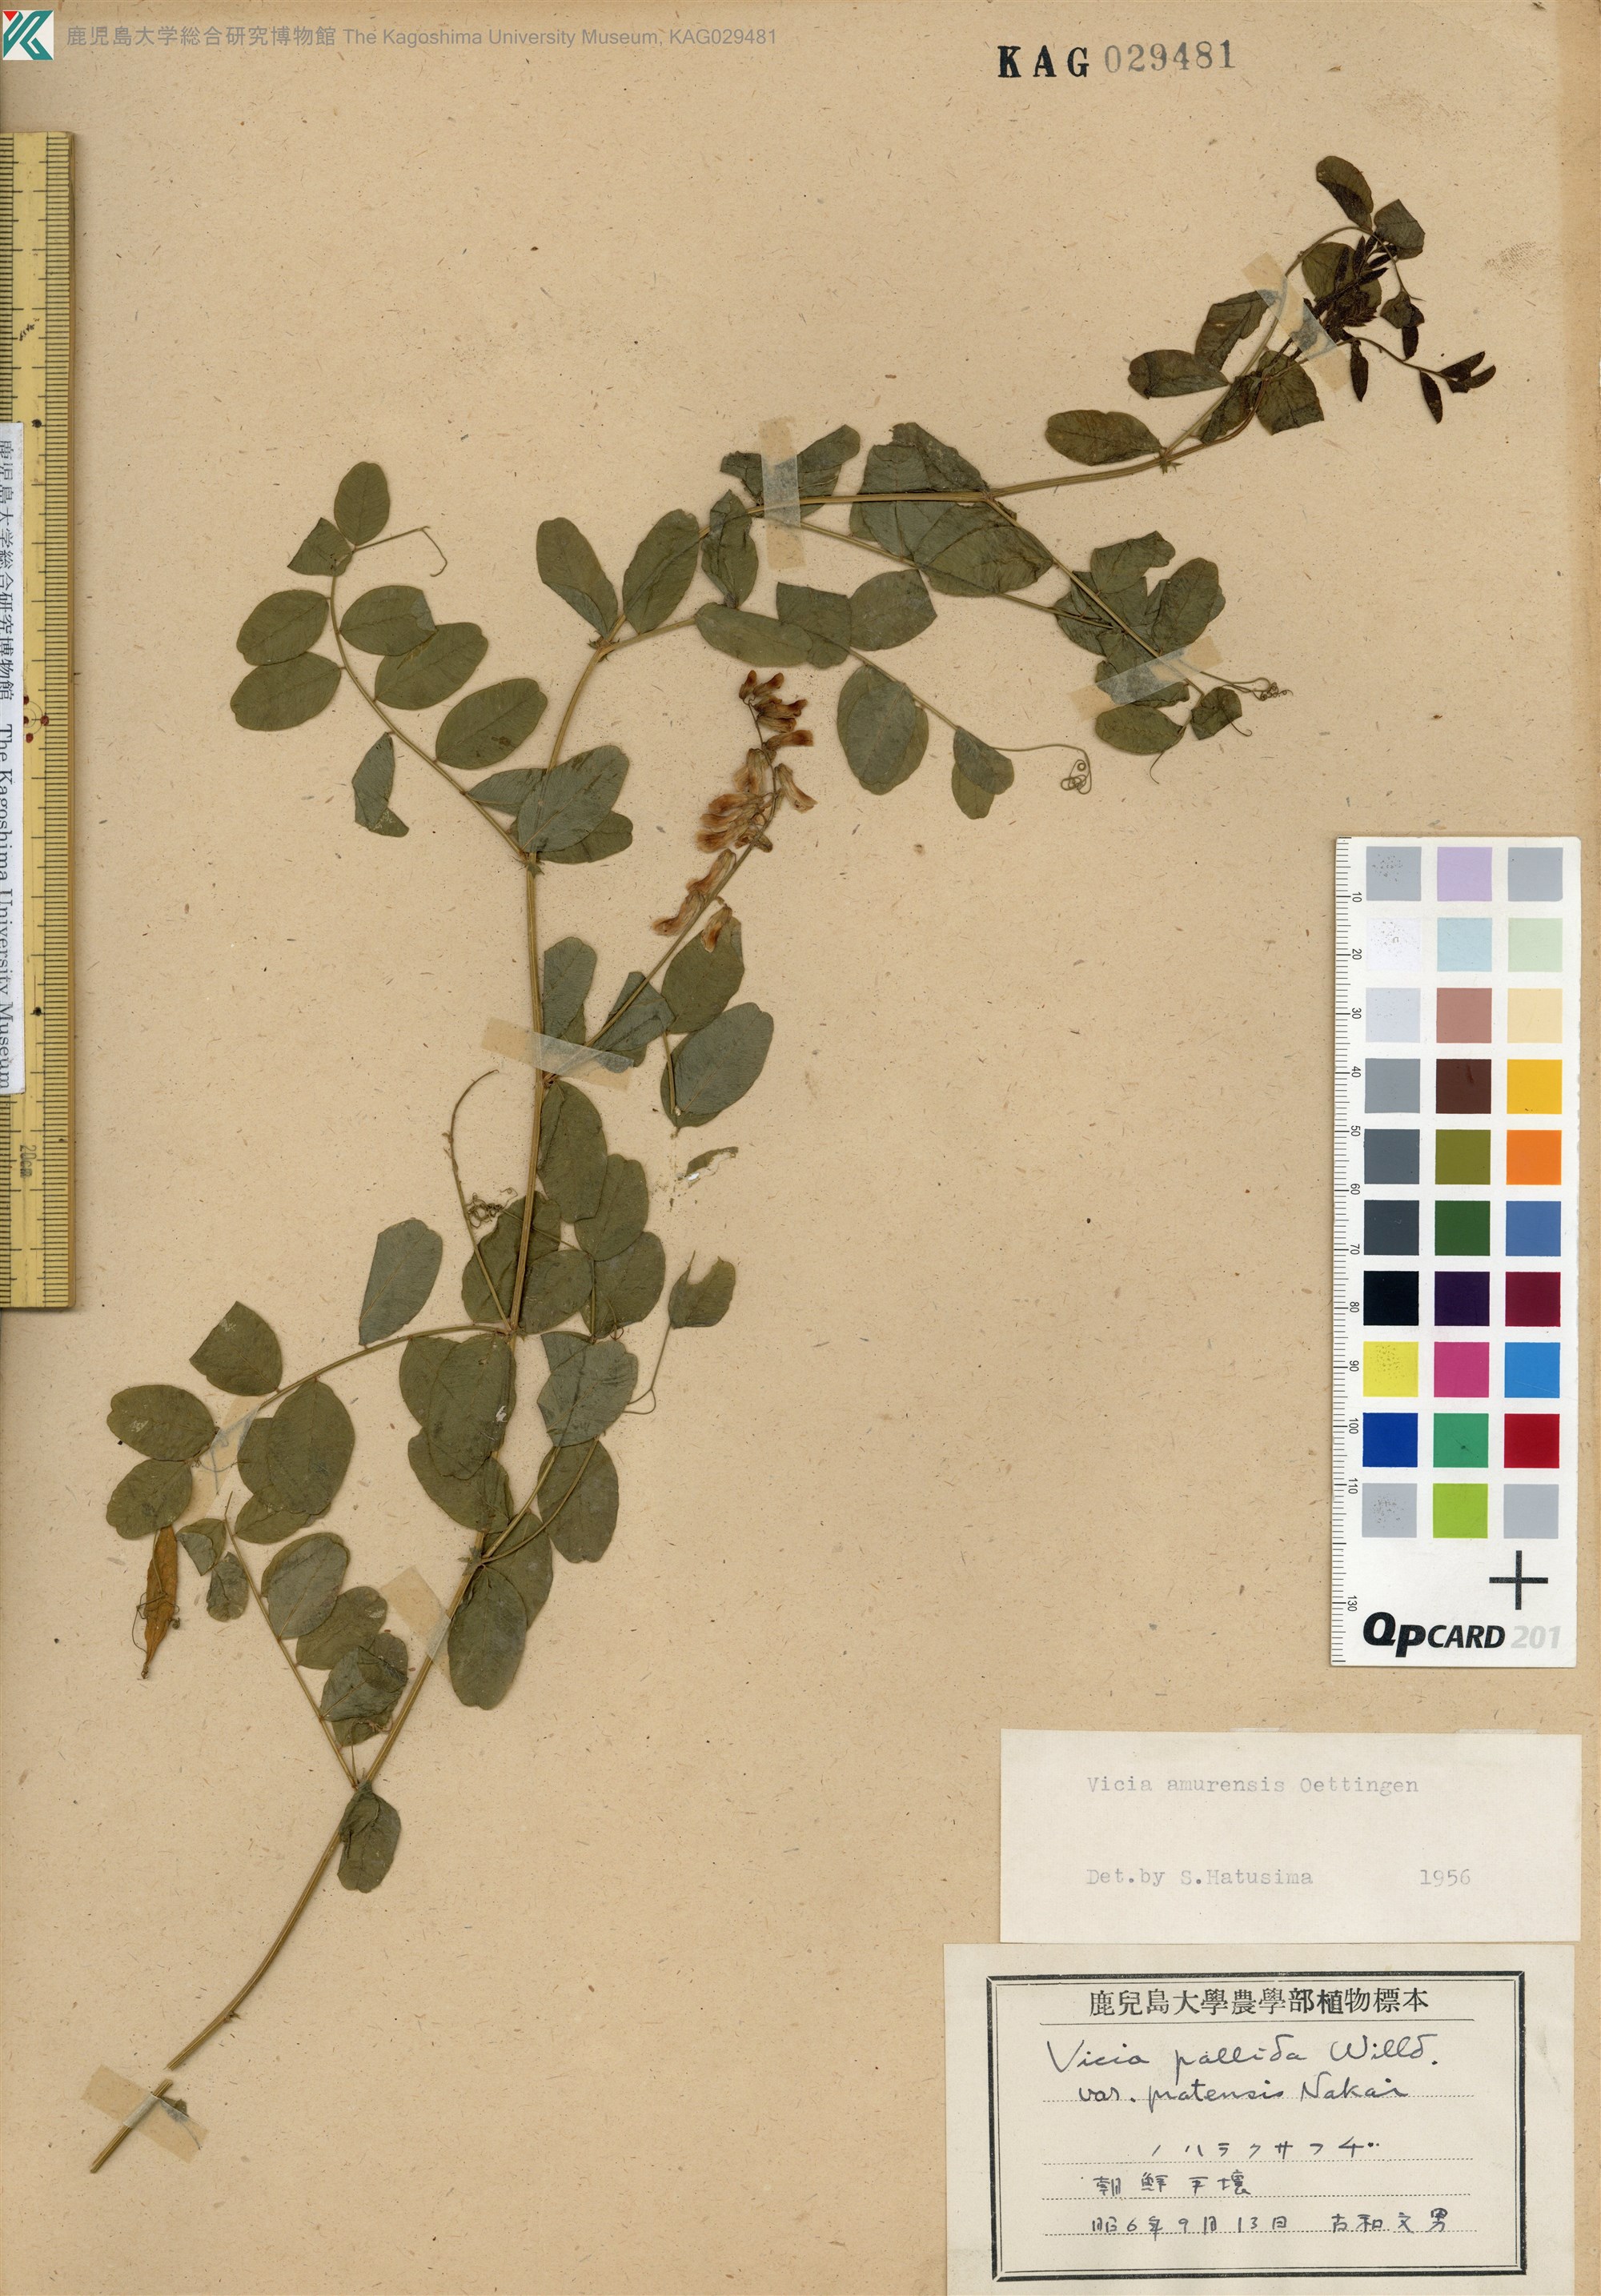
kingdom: Plantae
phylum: Tracheophyta
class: Magnoliopsida
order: Fabales
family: Fabaceae
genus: Vicia
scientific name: Vicia amurensis
